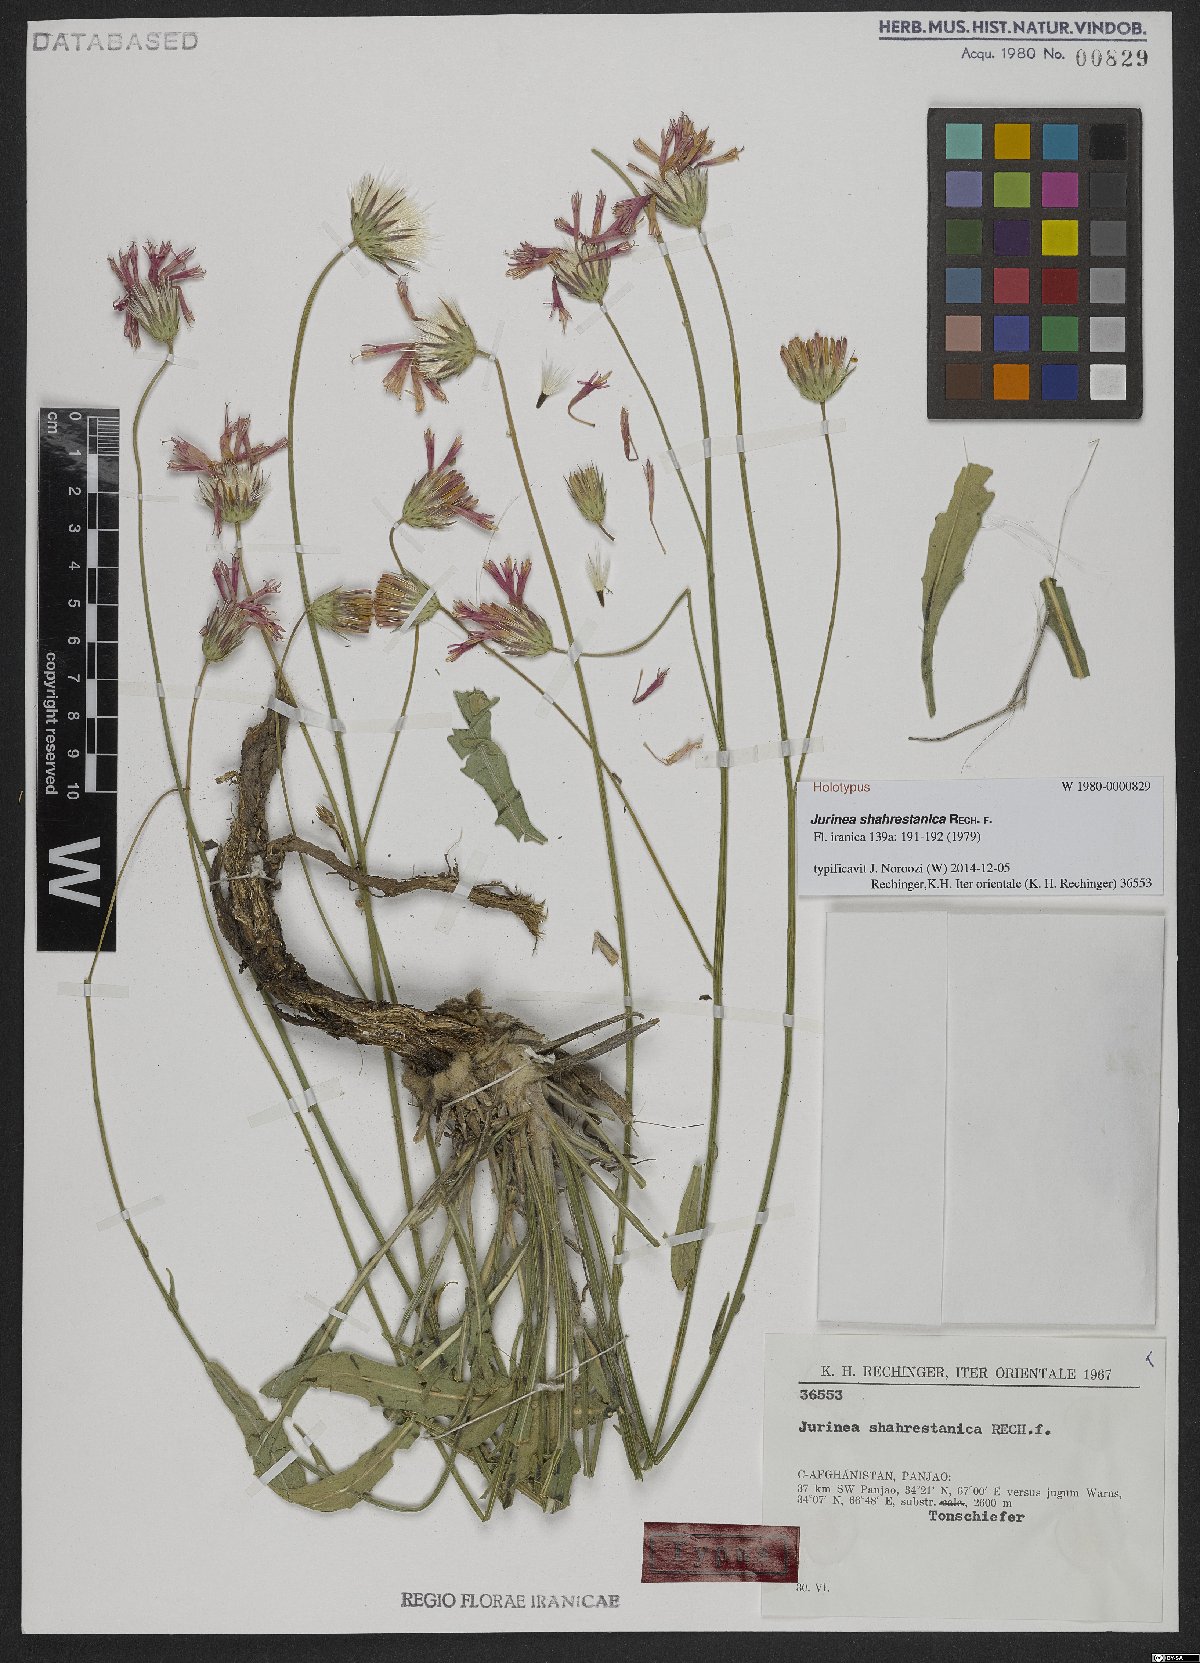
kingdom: Plantae
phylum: Tracheophyta
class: Magnoliopsida
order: Asterales
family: Asteraceae
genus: Jurinea
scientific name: Jurinea shahrestanica
